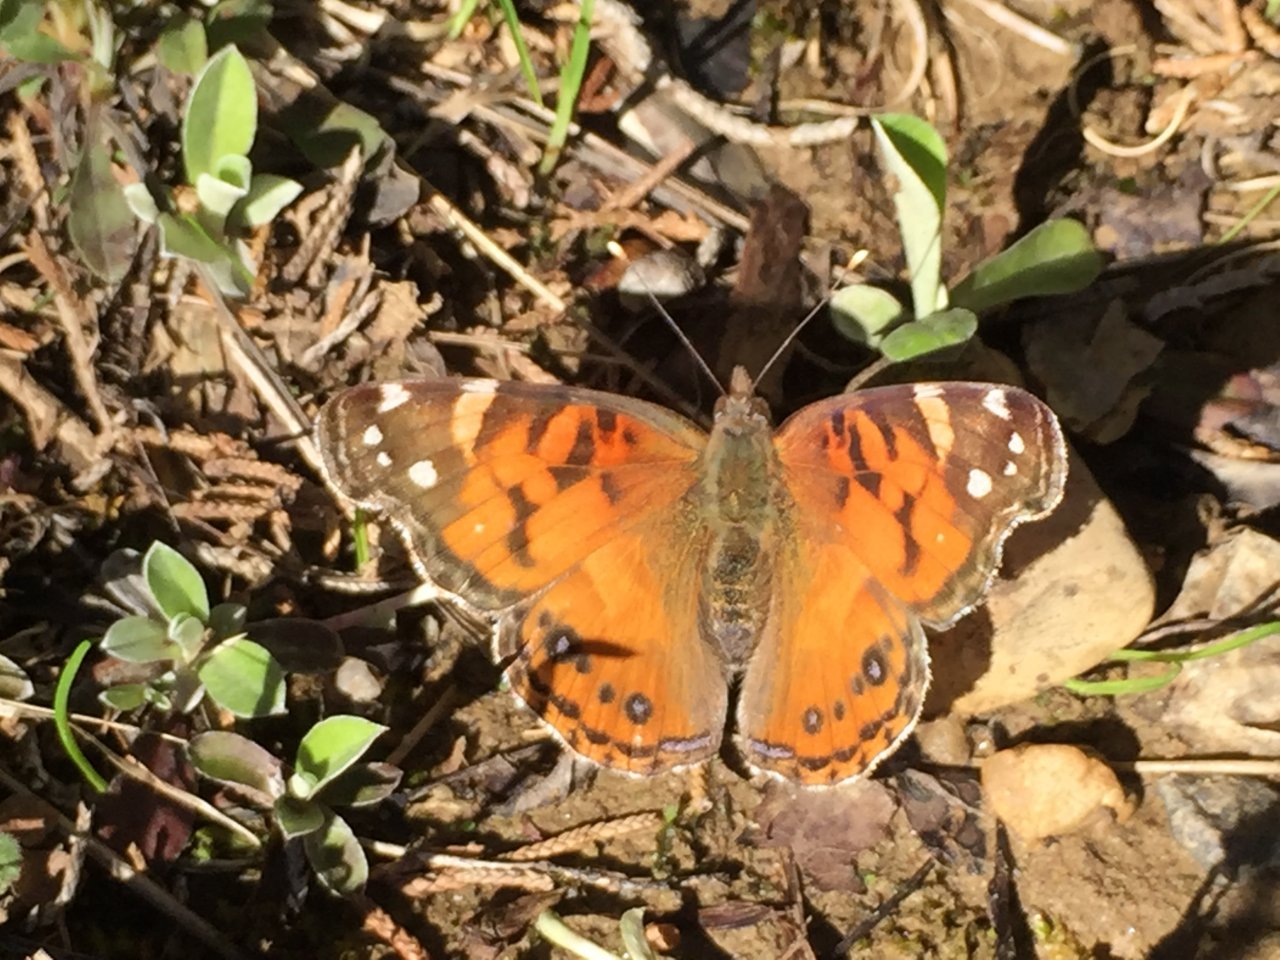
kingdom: Animalia
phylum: Arthropoda
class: Insecta
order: Lepidoptera
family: Nymphalidae
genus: Vanessa
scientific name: Vanessa virginiensis
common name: American Lady
